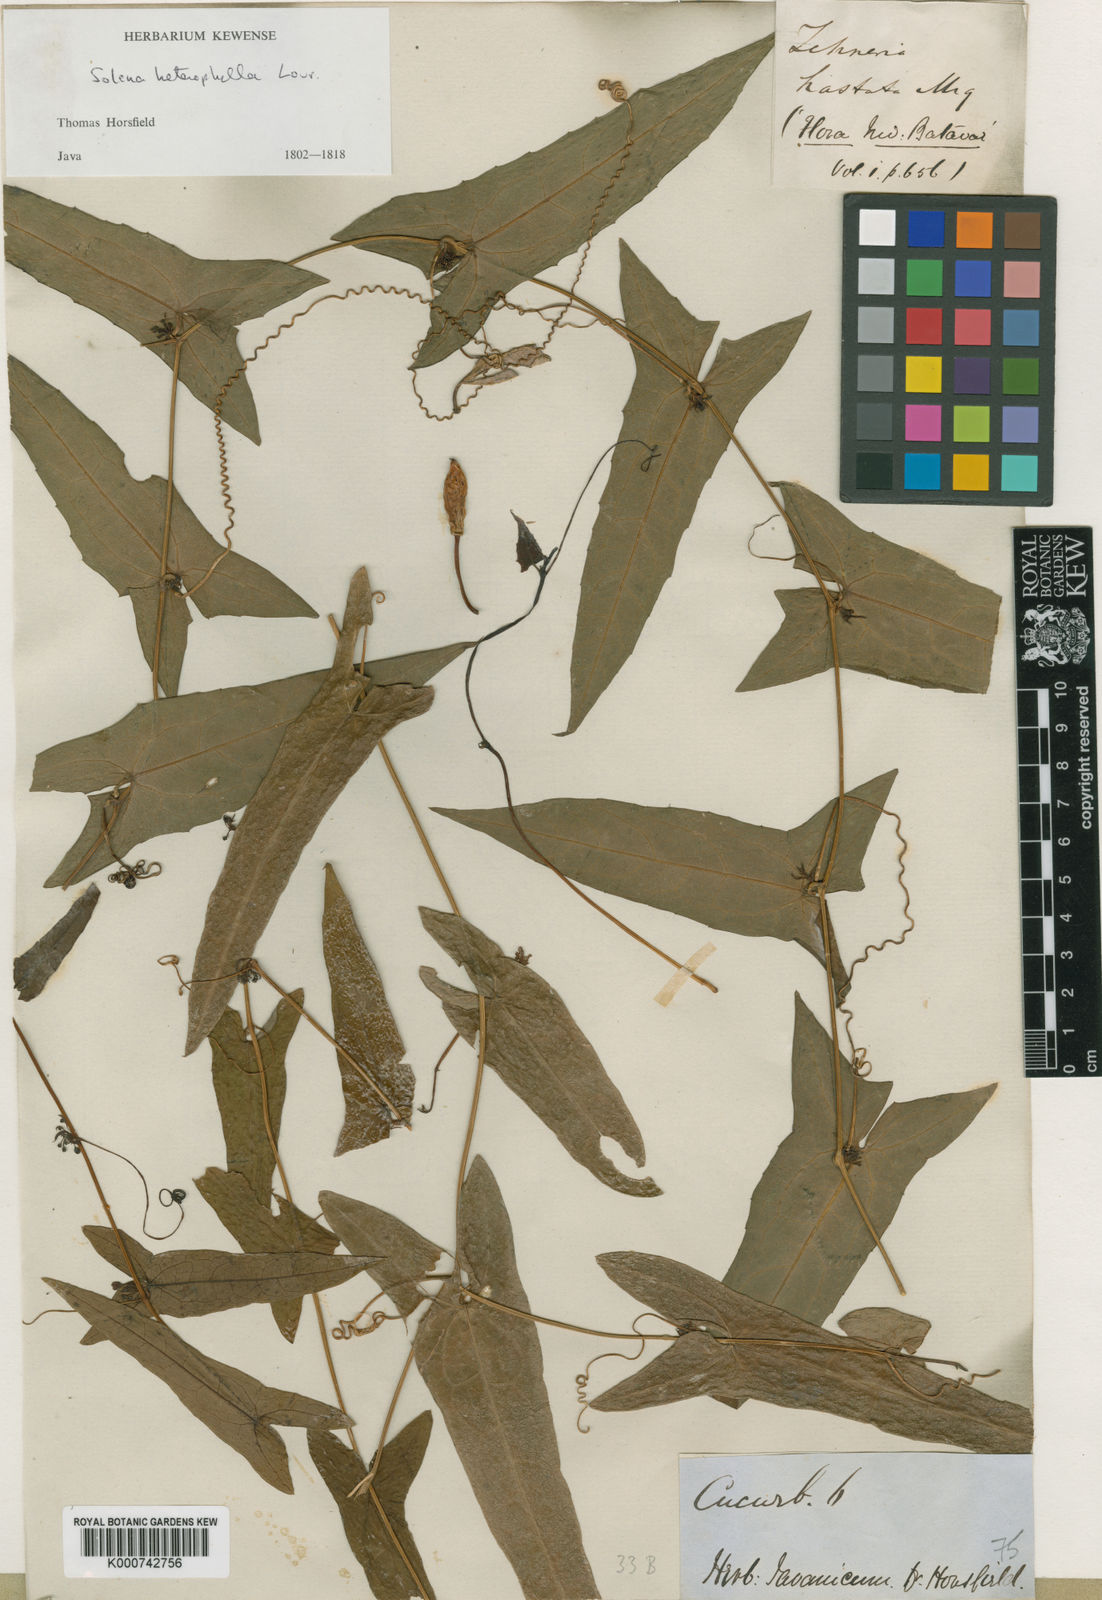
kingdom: Plantae
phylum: Tracheophyta
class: Magnoliopsida
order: Cucurbitales
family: Cucurbitaceae
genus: Solena
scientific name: Solena amplexicaulis
